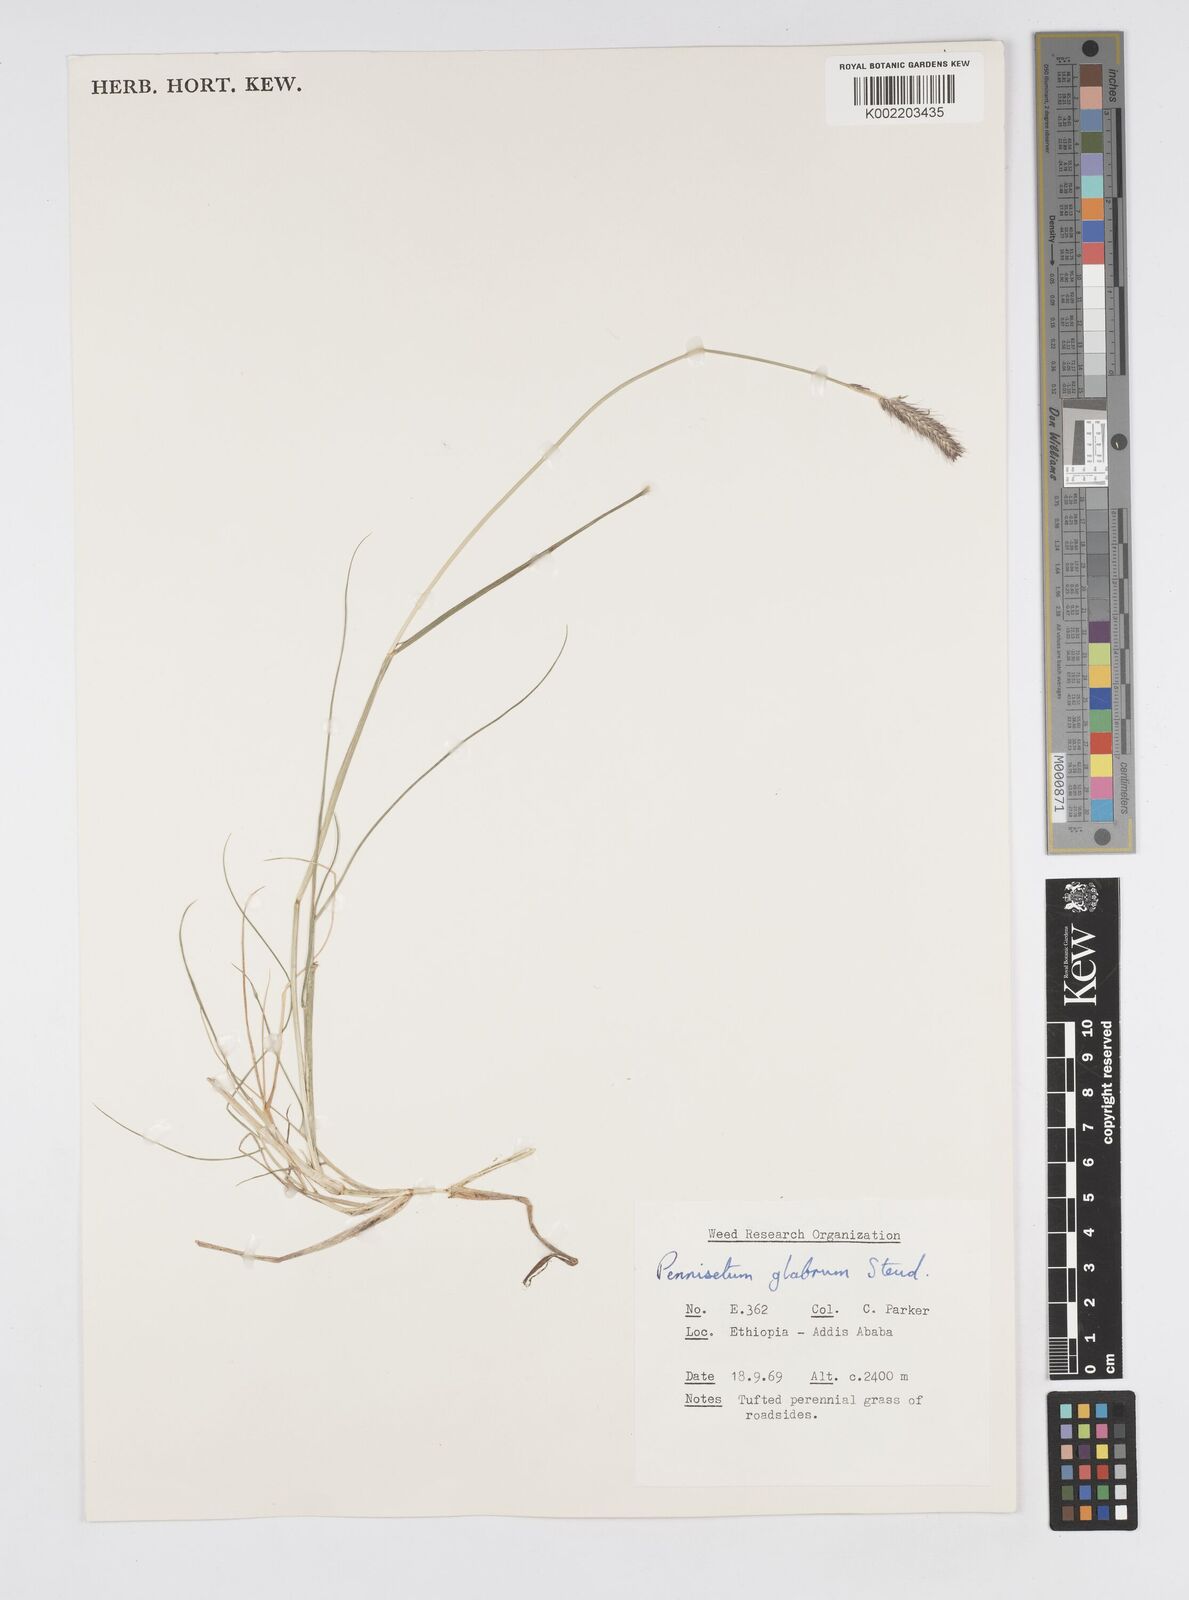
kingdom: Plantae
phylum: Tracheophyta
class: Liliopsida
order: Poales
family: Poaceae
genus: Cenchrus
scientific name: Cenchrus geniculatus
